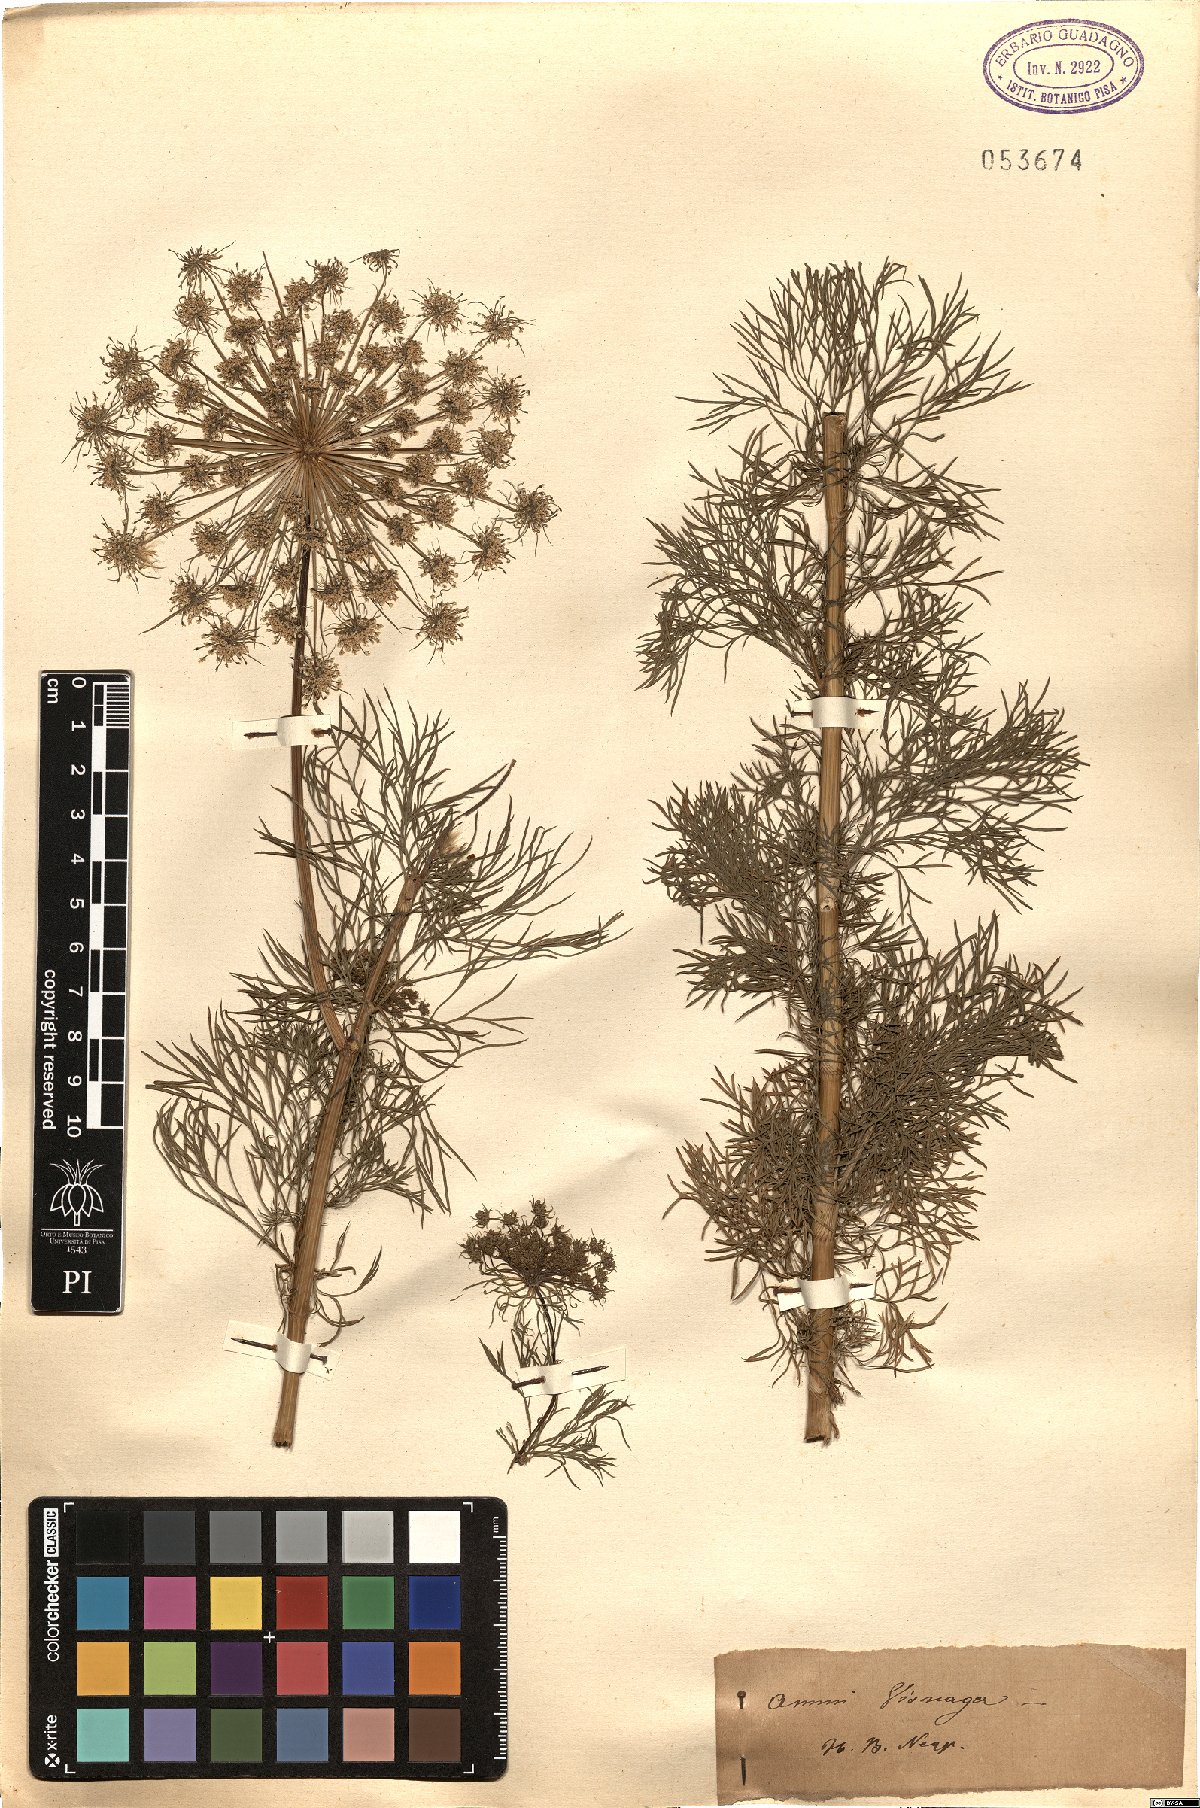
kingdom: Plantae
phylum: Tracheophyta
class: Magnoliopsida
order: Apiales
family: Apiaceae
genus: Visnaga
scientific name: Visnaga daucoides
